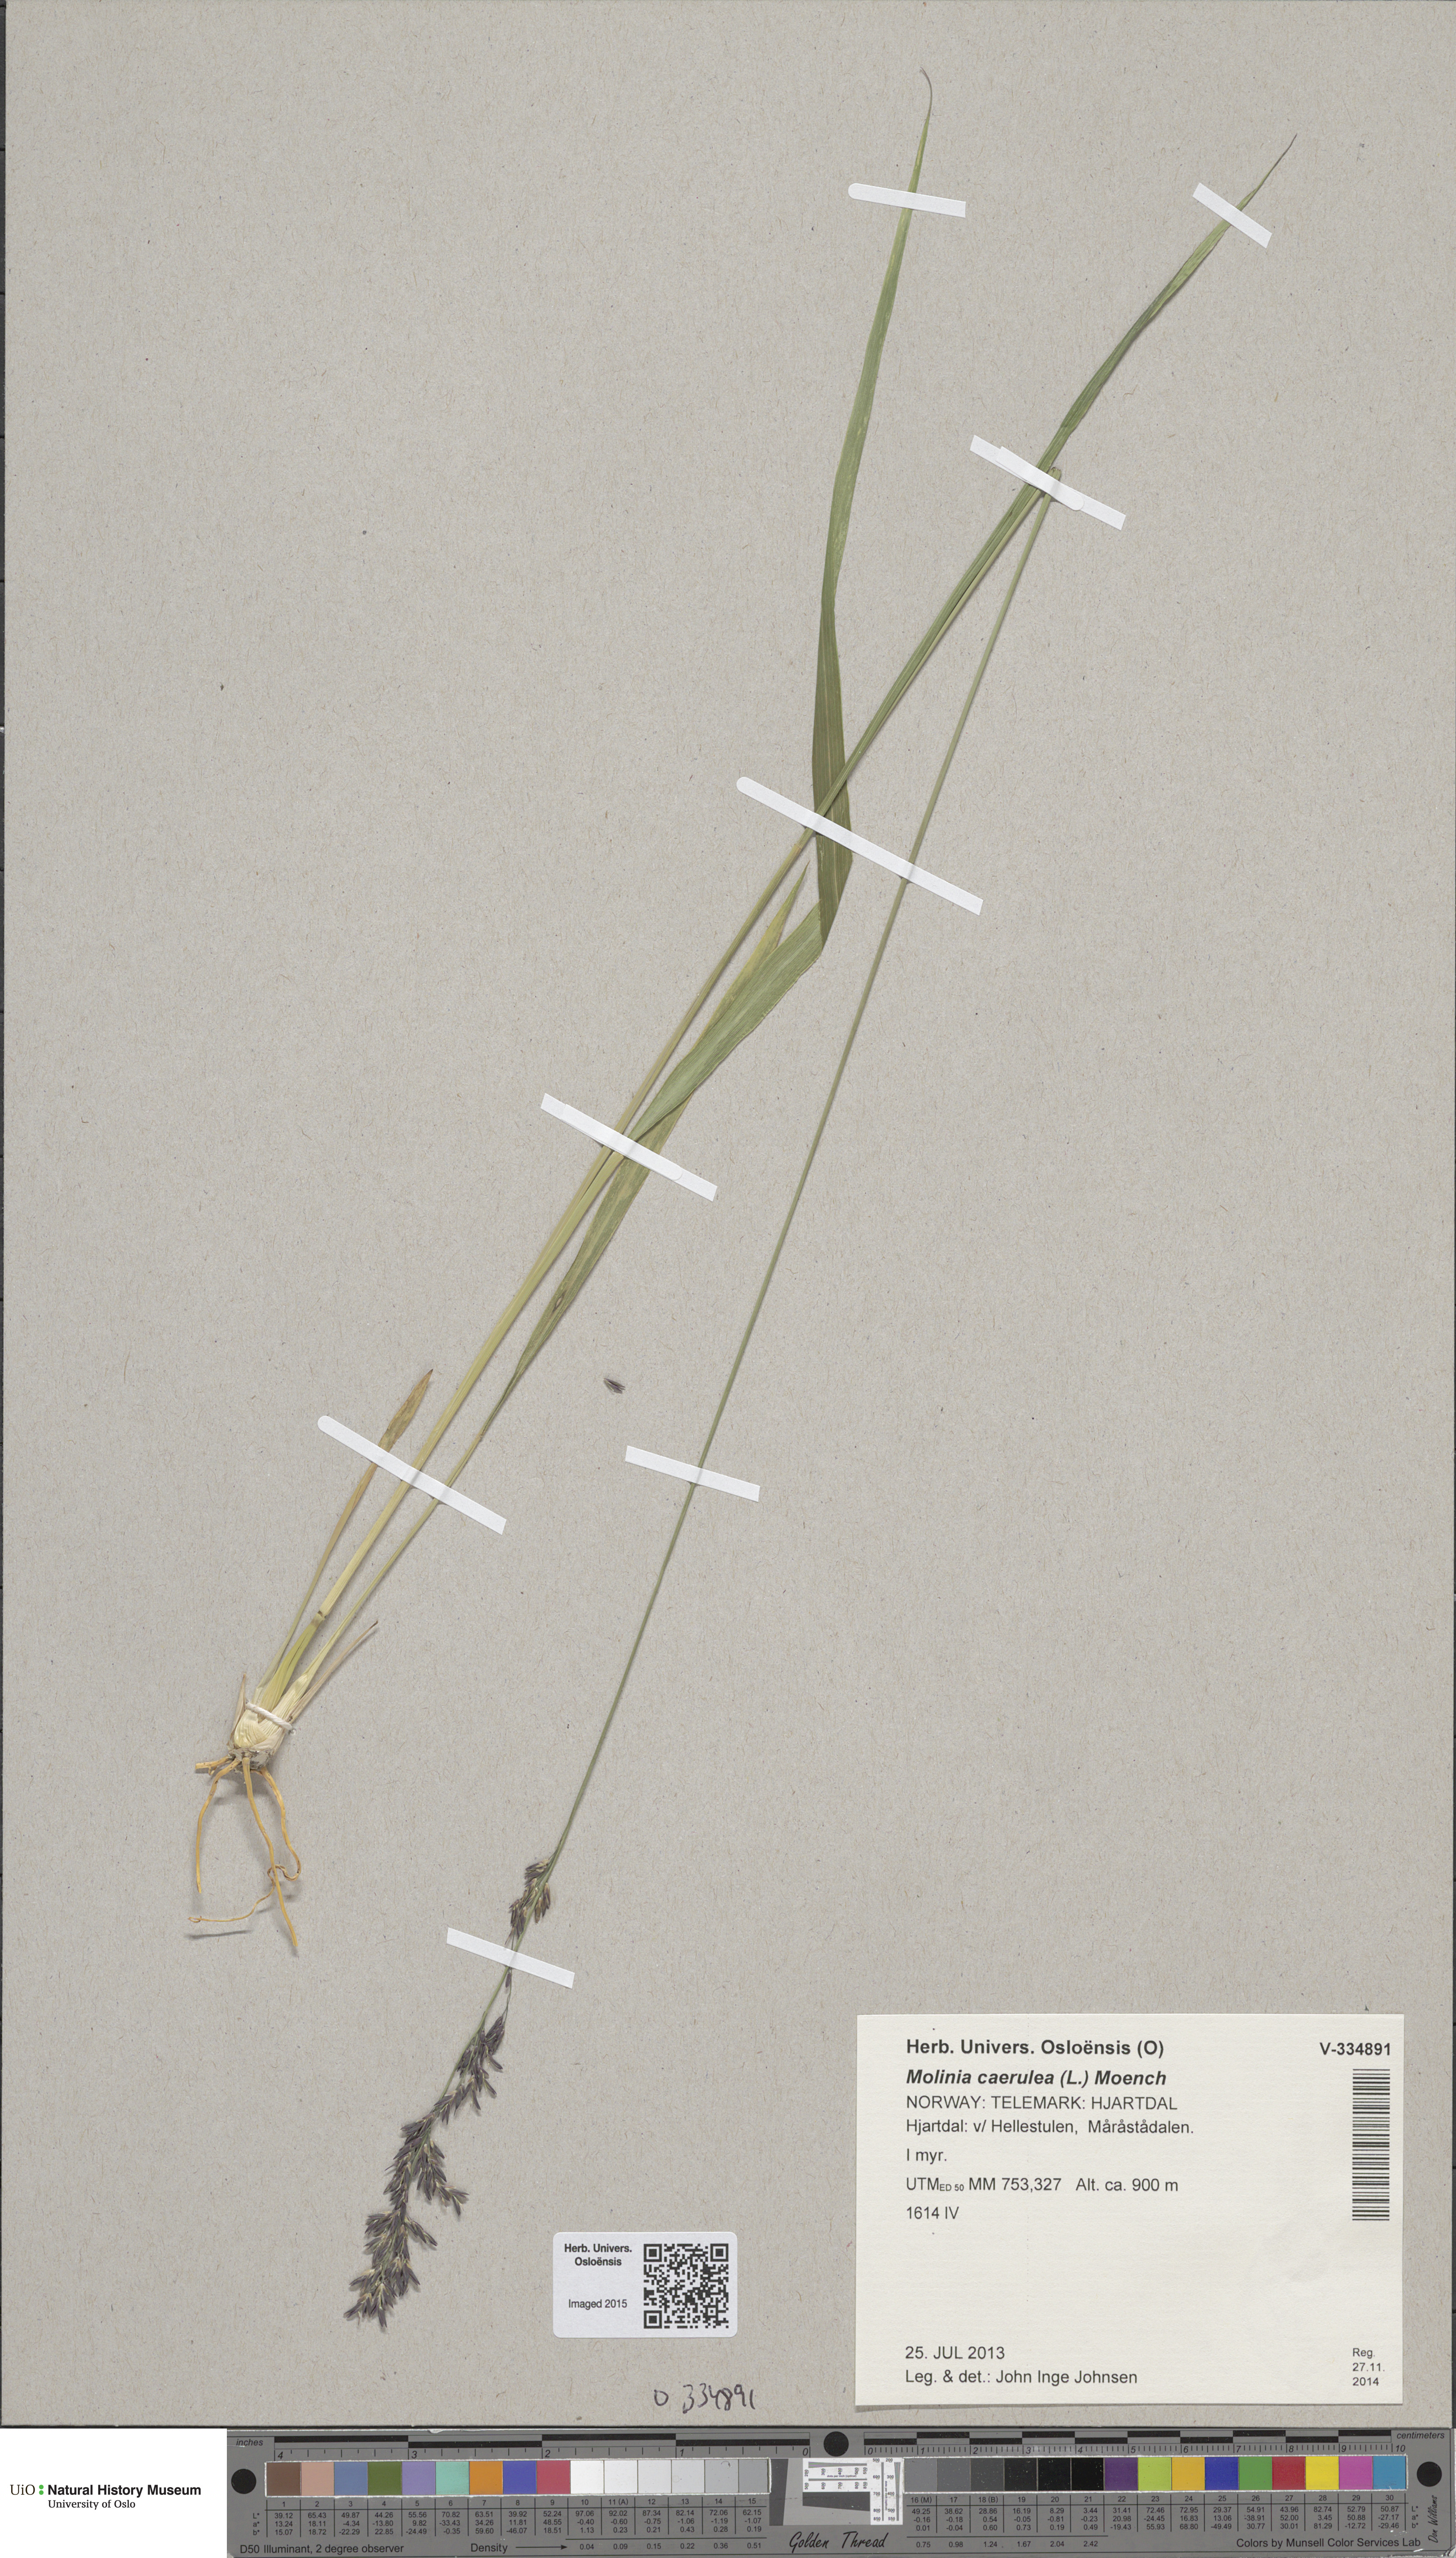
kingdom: Plantae
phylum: Tracheophyta
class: Liliopsida
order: Poales
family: Poaceae
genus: Molinia
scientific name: Molinia caerulea
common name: Purple moor-grass
